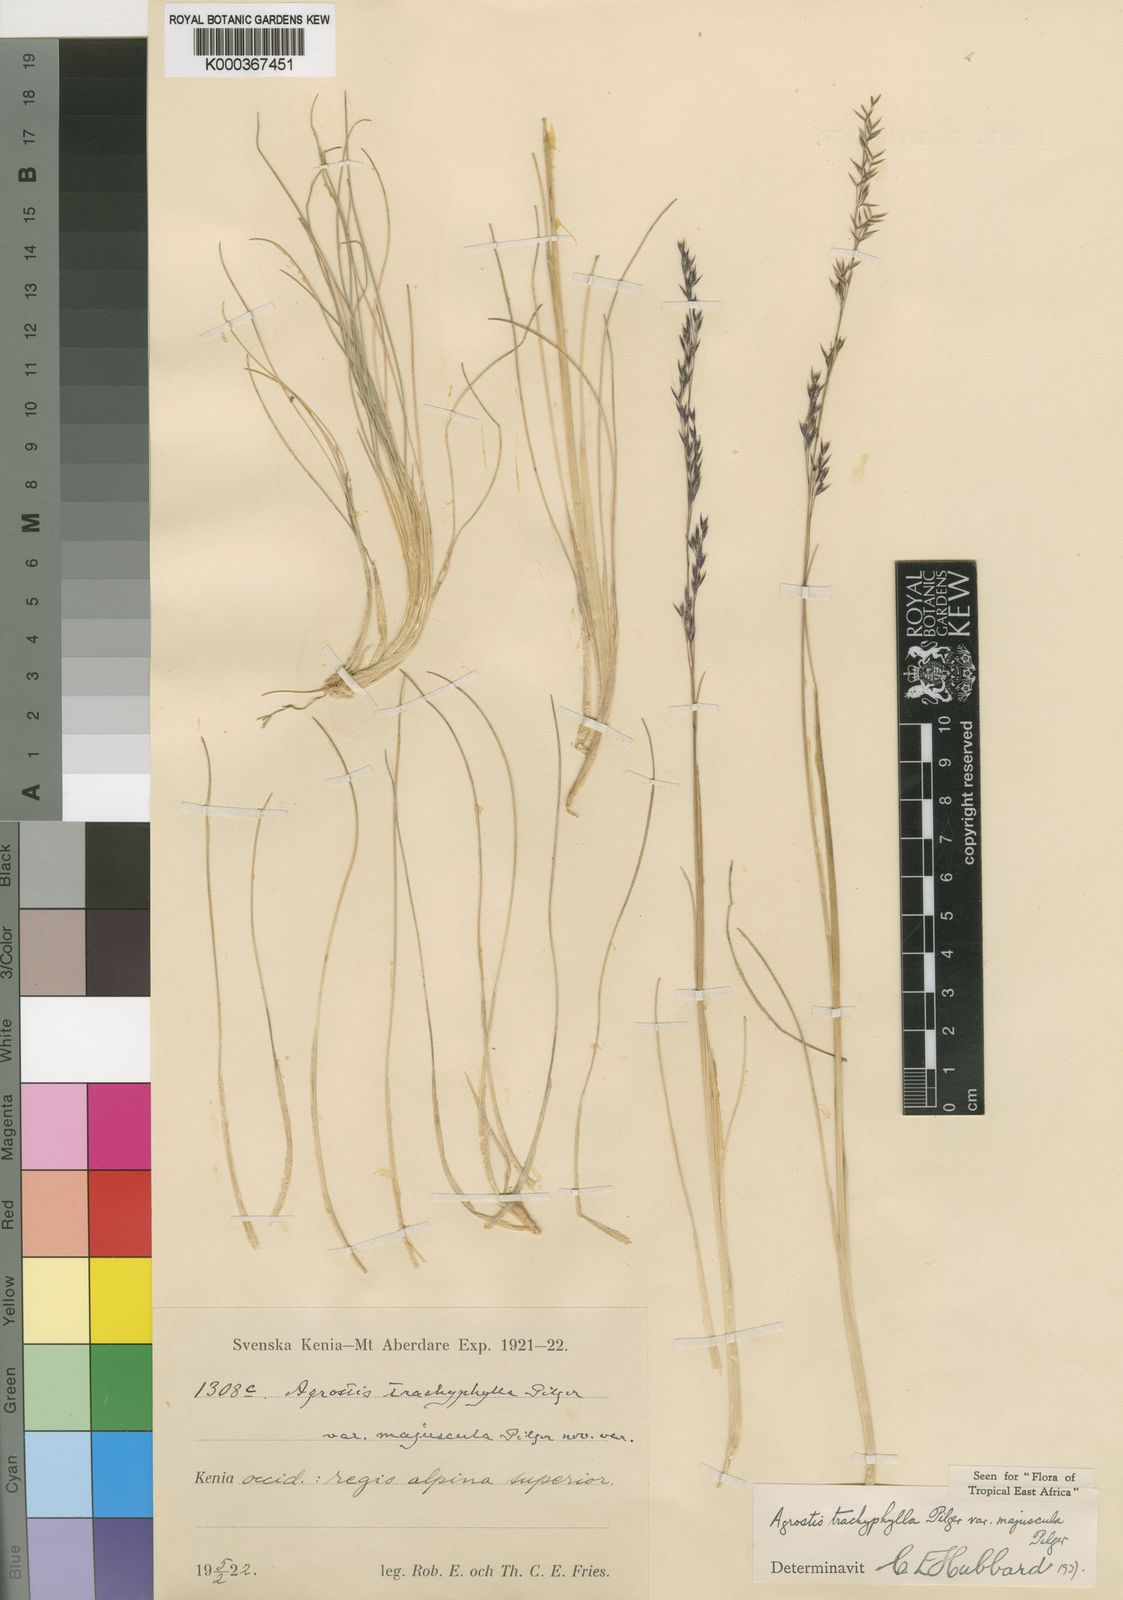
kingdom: Plantae
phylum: Tracheophyta
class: Liliopsida
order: Poales
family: Poaceae
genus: Agrostis
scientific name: Agrostis trachyphylla
